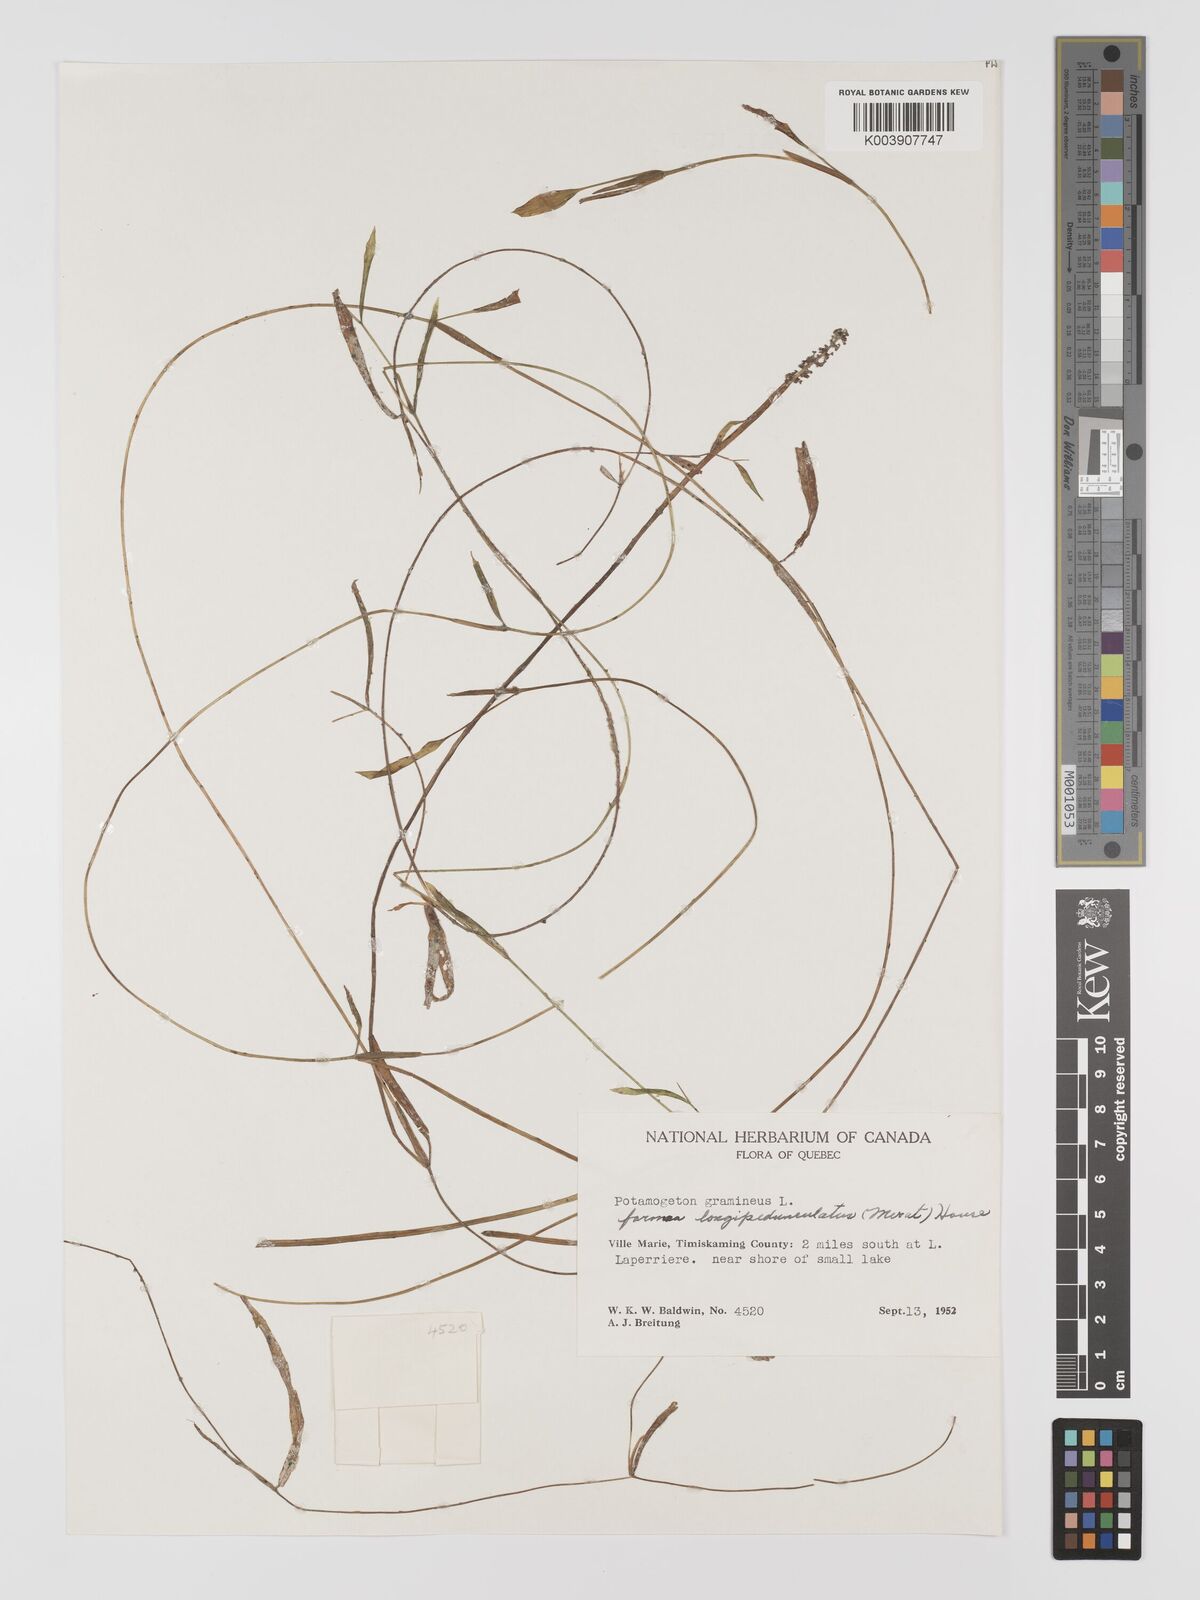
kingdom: Plantae
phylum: Tracheophyta
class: Liliopsida
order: Alismatales
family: Potamogetonaceae
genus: Potamogeton
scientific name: Potamogeton gramineus
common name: Various-leaved pondweed
